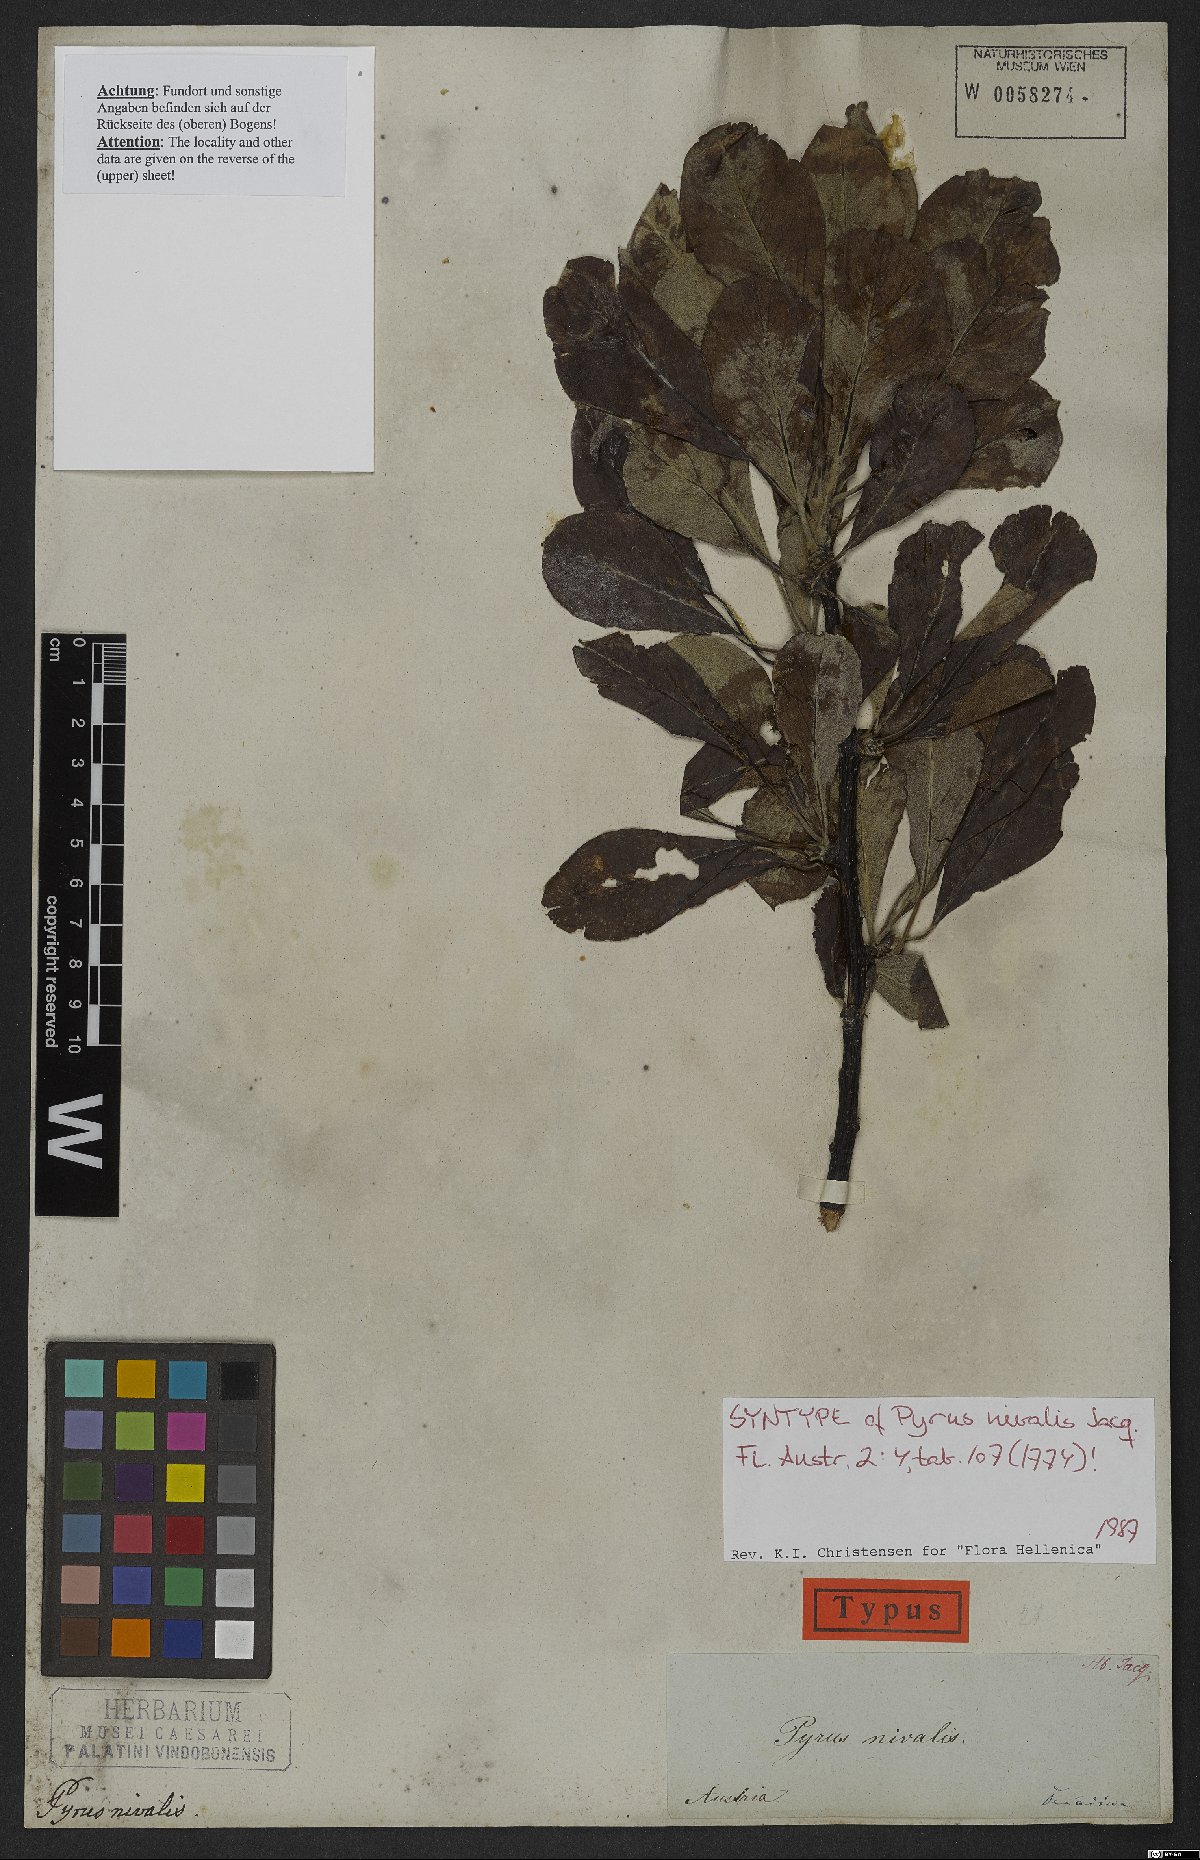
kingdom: Plantae
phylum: Tracheophyta
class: Magnoliopsida
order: Rosales
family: Rosaceae
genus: Pyrus
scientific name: Pyrus nivalis
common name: Snow pear
